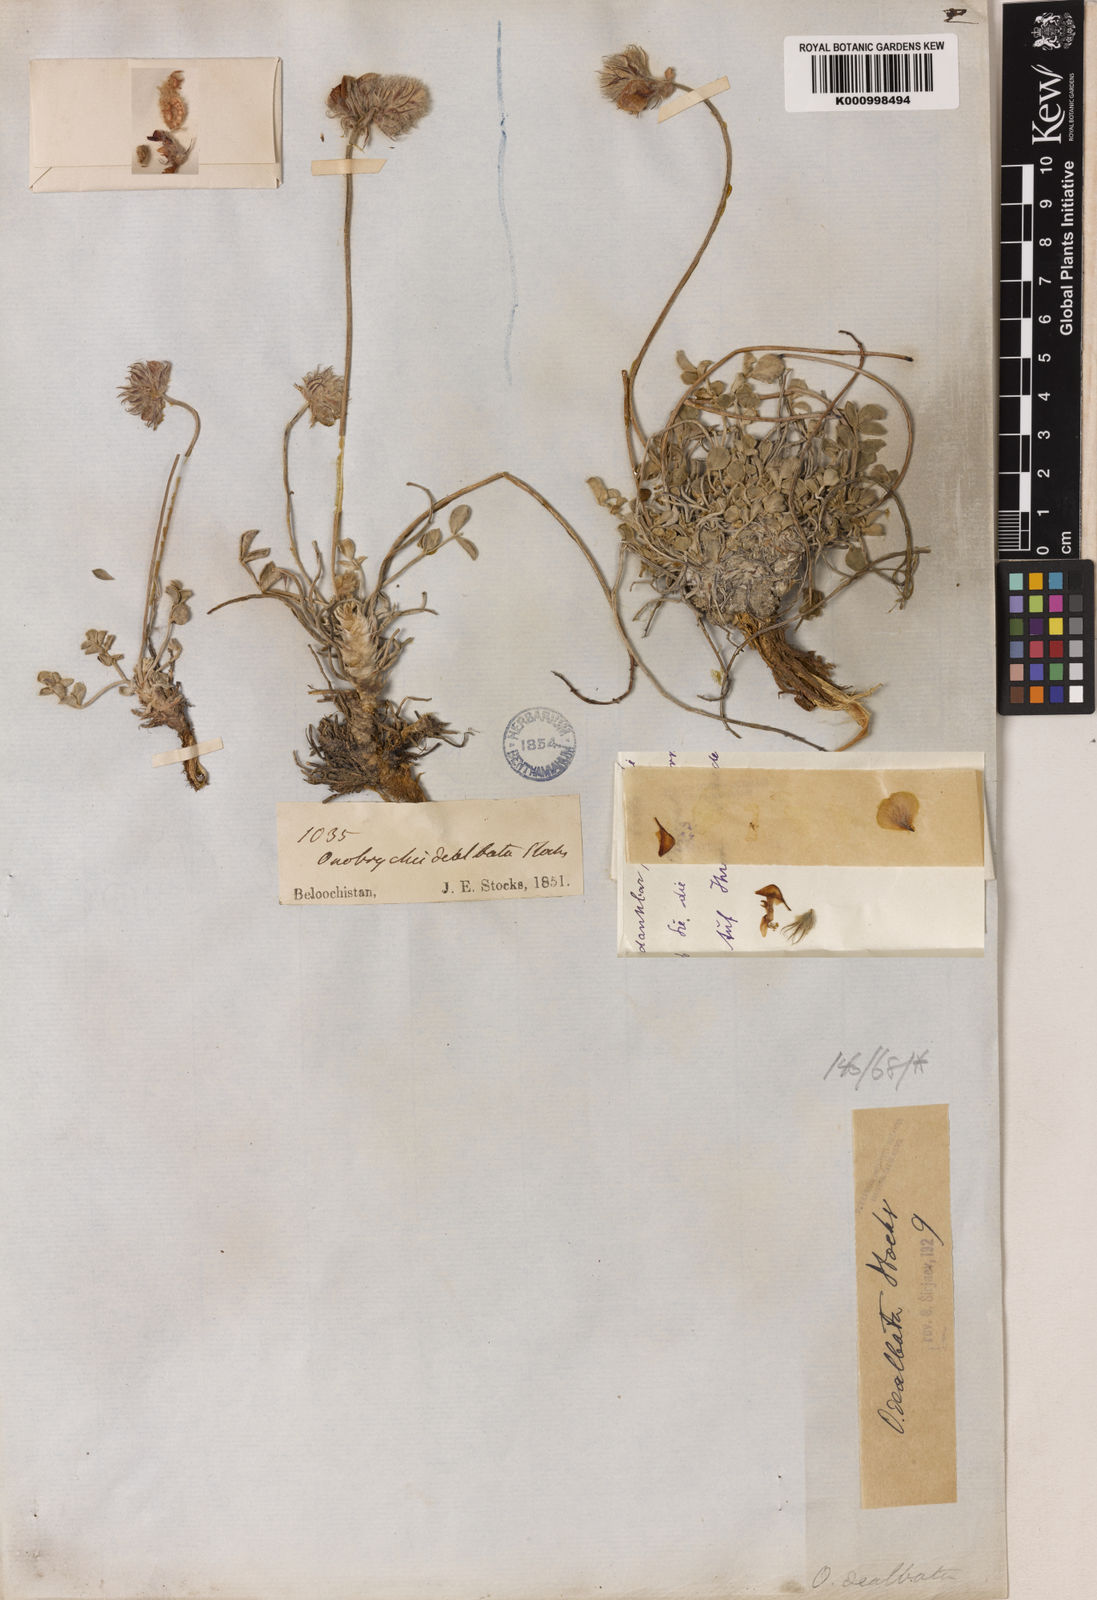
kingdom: Plantae
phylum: Tracheophyta
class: Magnoliopsida
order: Fabales
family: Fabaceae
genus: Onobrychis
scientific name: Onobrychis dealbata
